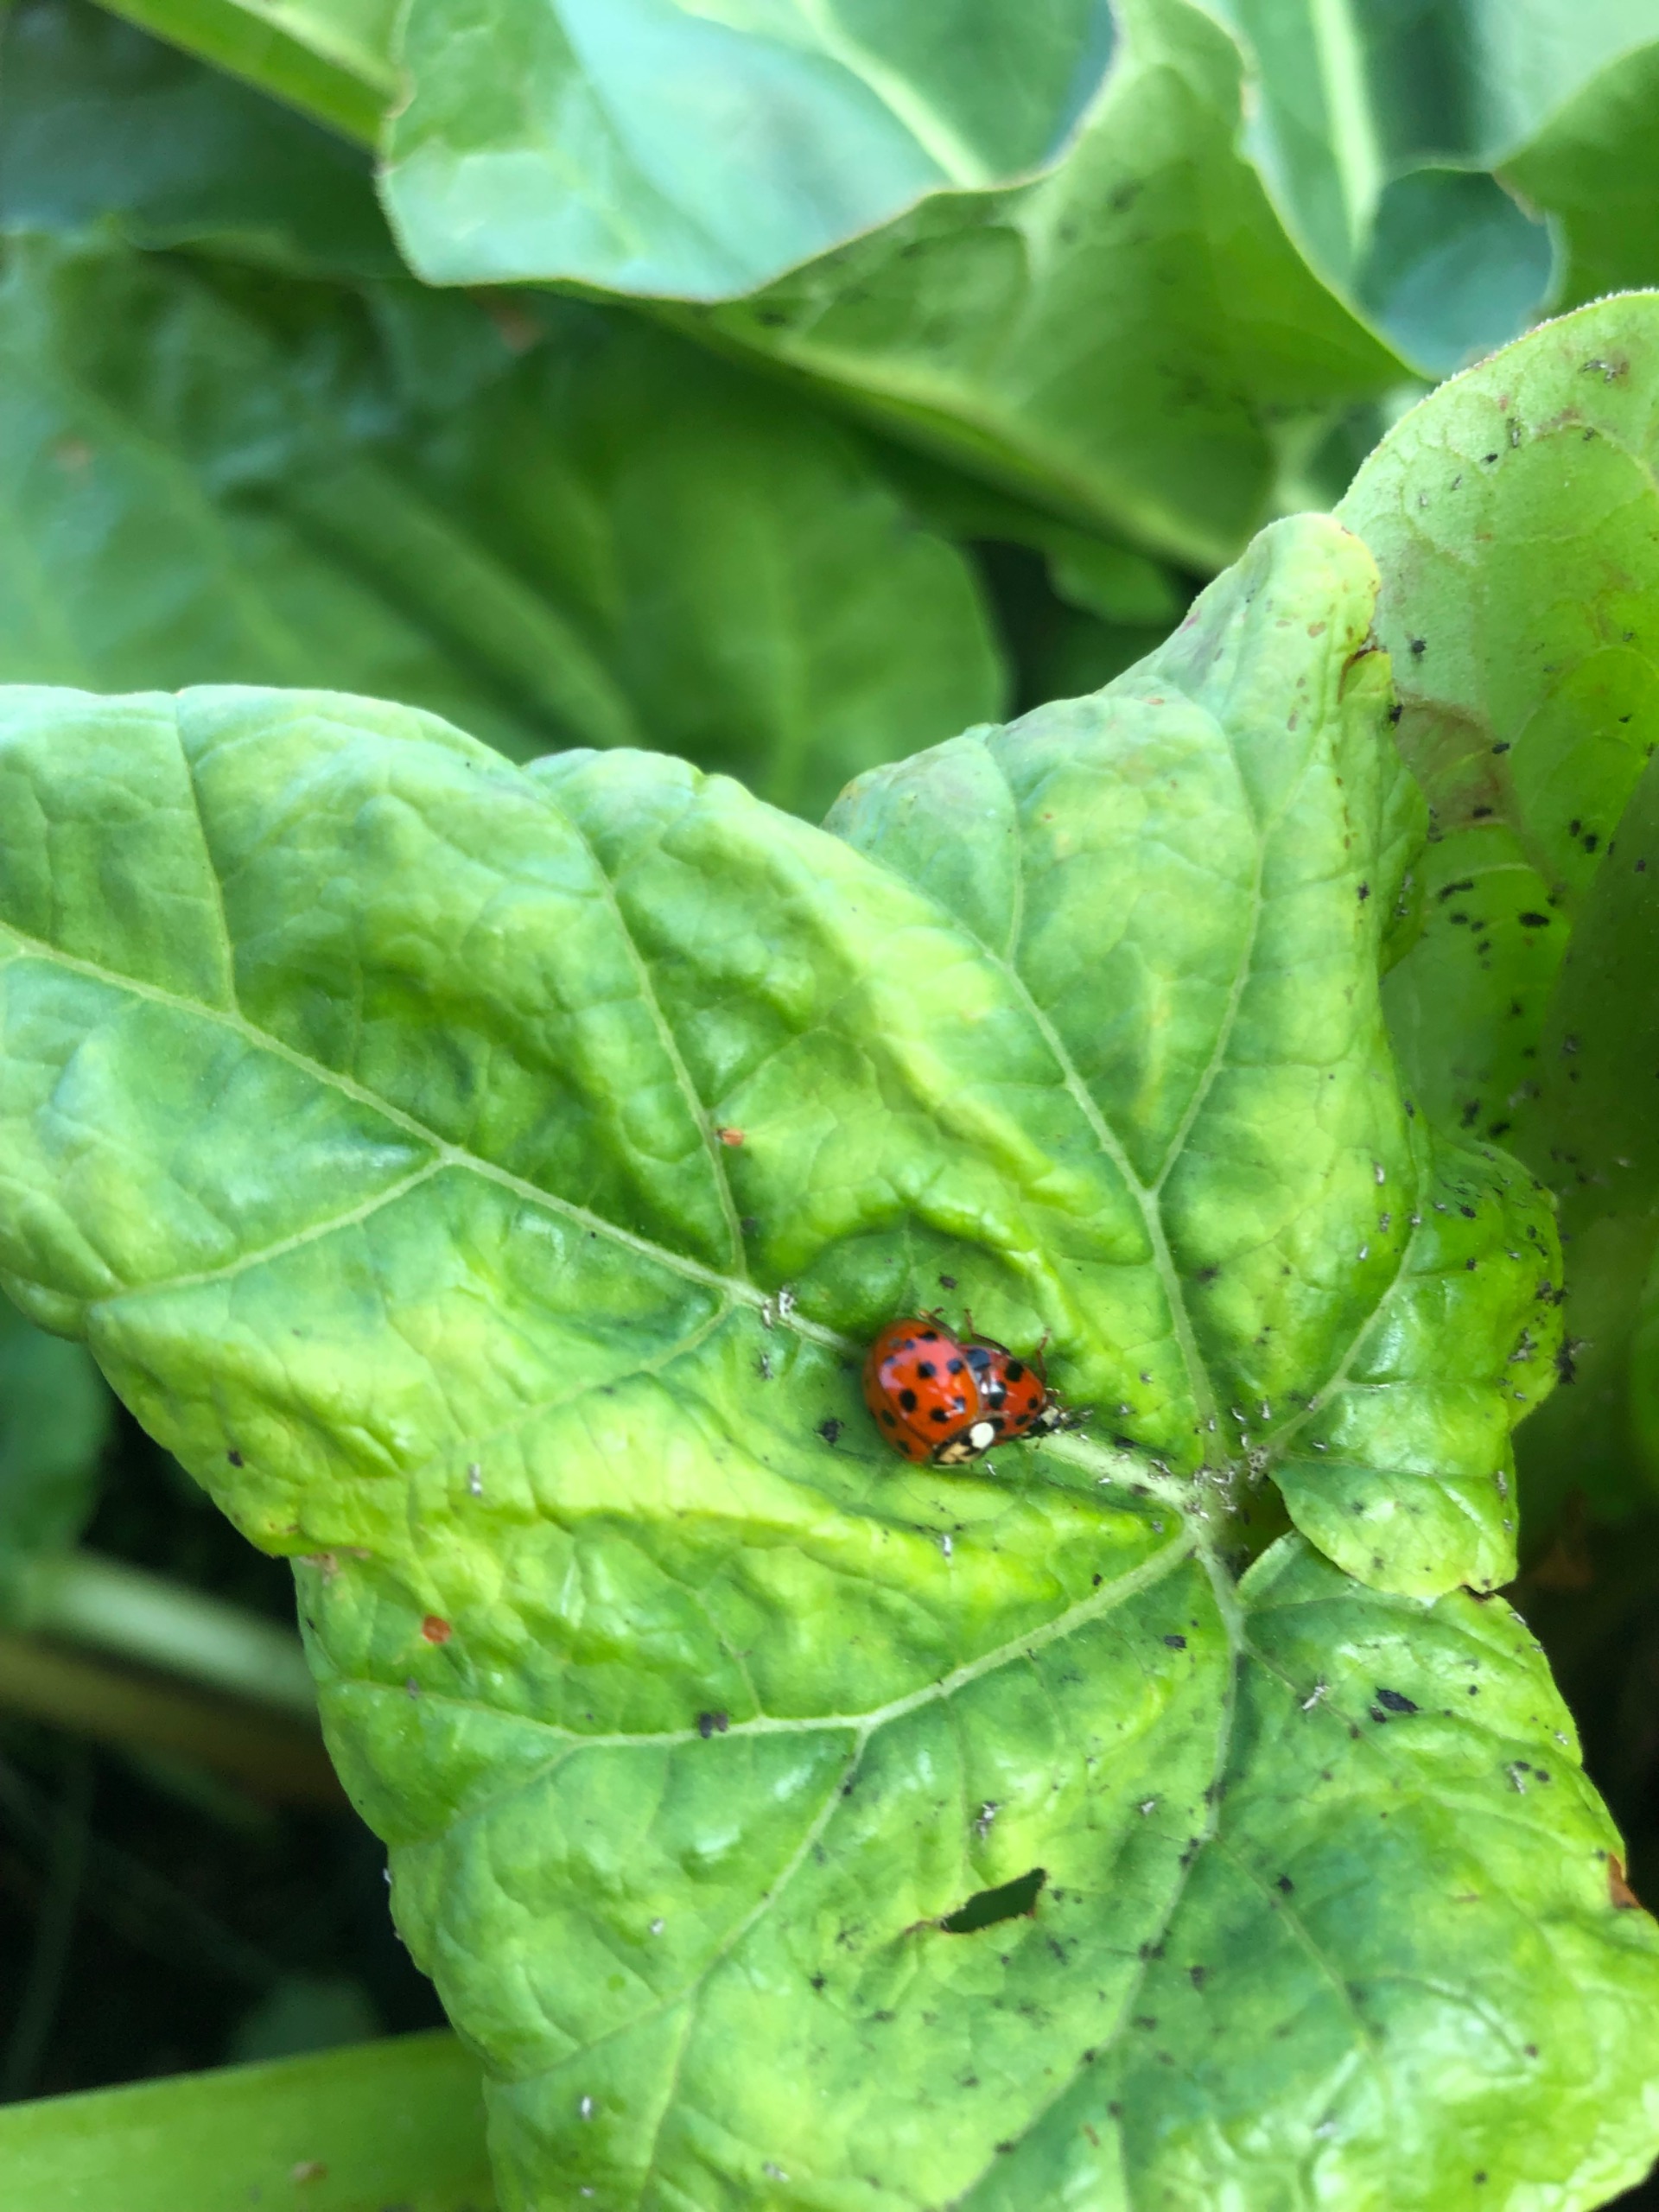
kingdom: Animalia
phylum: Arthropoda
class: Insecta
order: Coleoptera
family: Coccinellidae
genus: Harmonia
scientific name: Harmonia axyridis
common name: Harlekinmariehøne
